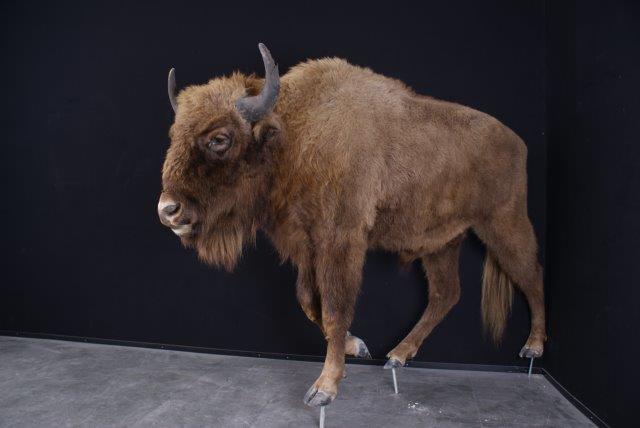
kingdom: Animalia
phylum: Chordata
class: Mammalia
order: Artiodactyla
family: Bovidae
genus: Bison
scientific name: Bison bonasus
